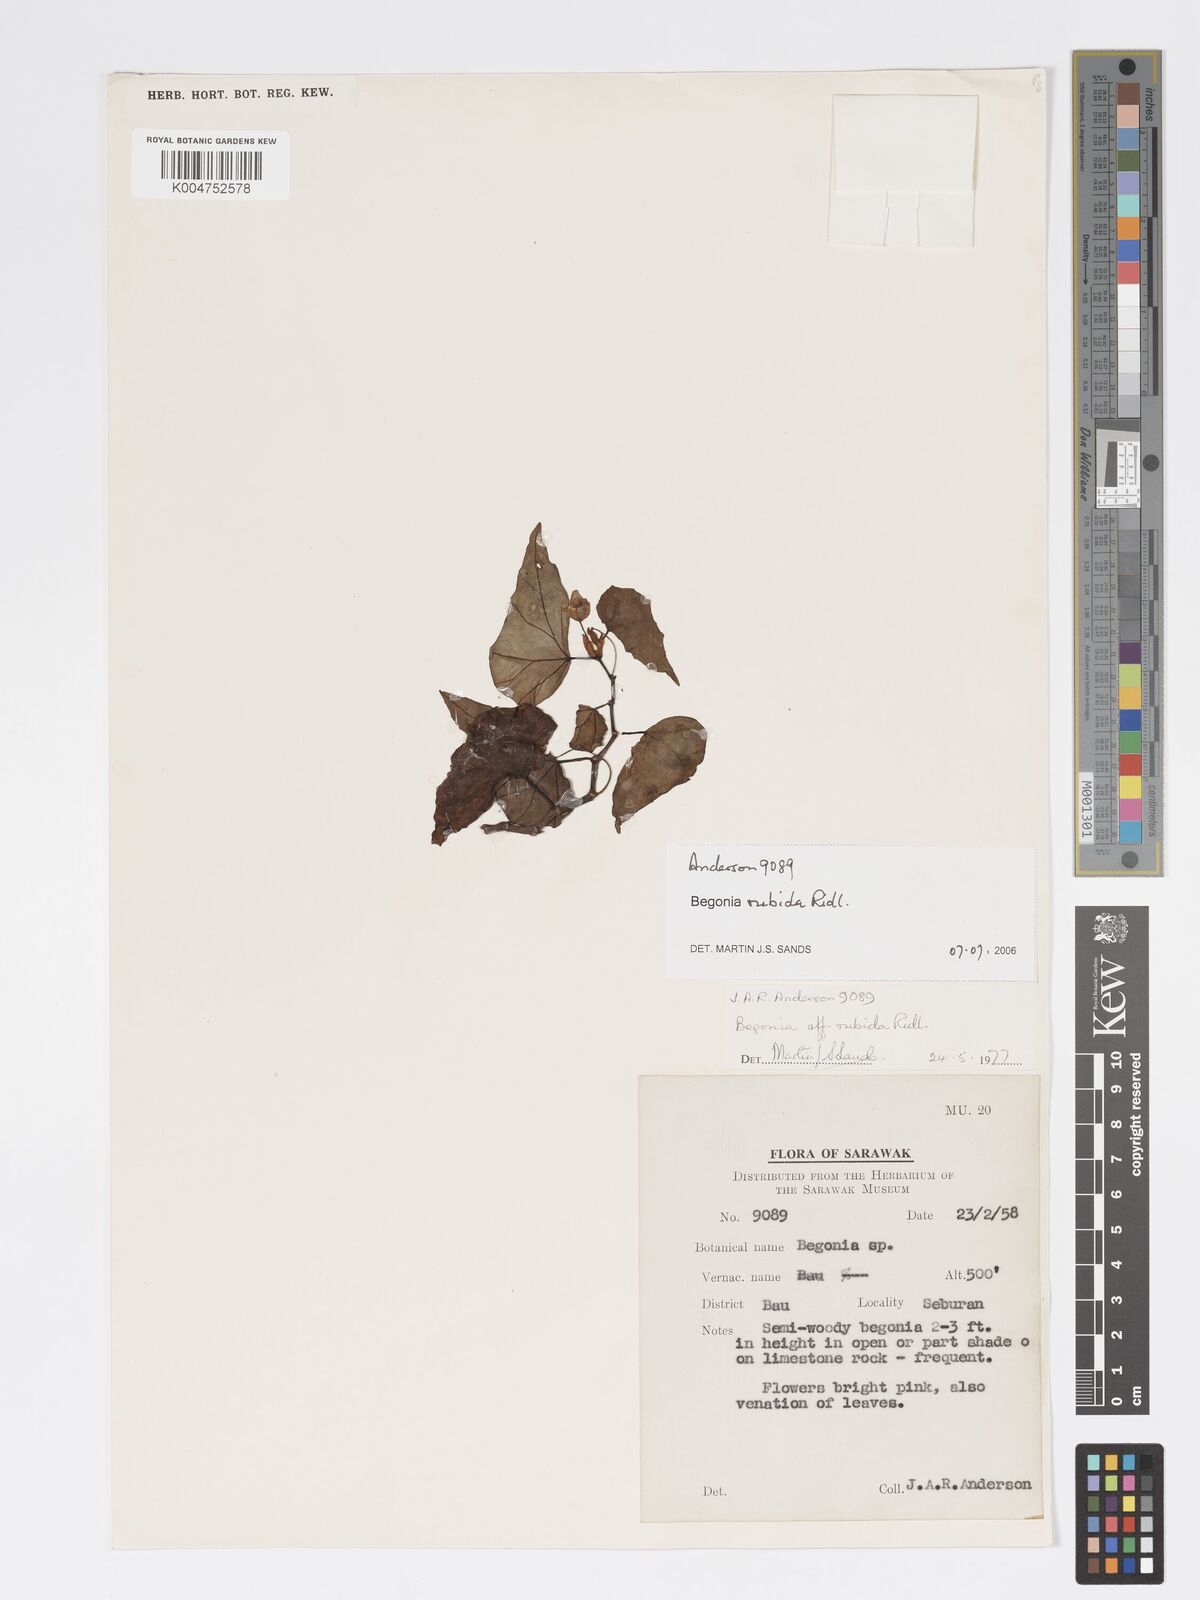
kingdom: Plantae
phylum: Tracheophyta
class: Magnoliopsida
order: Cucurbitales
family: Begoniaceae
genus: Begonia
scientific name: Begonia rubida
